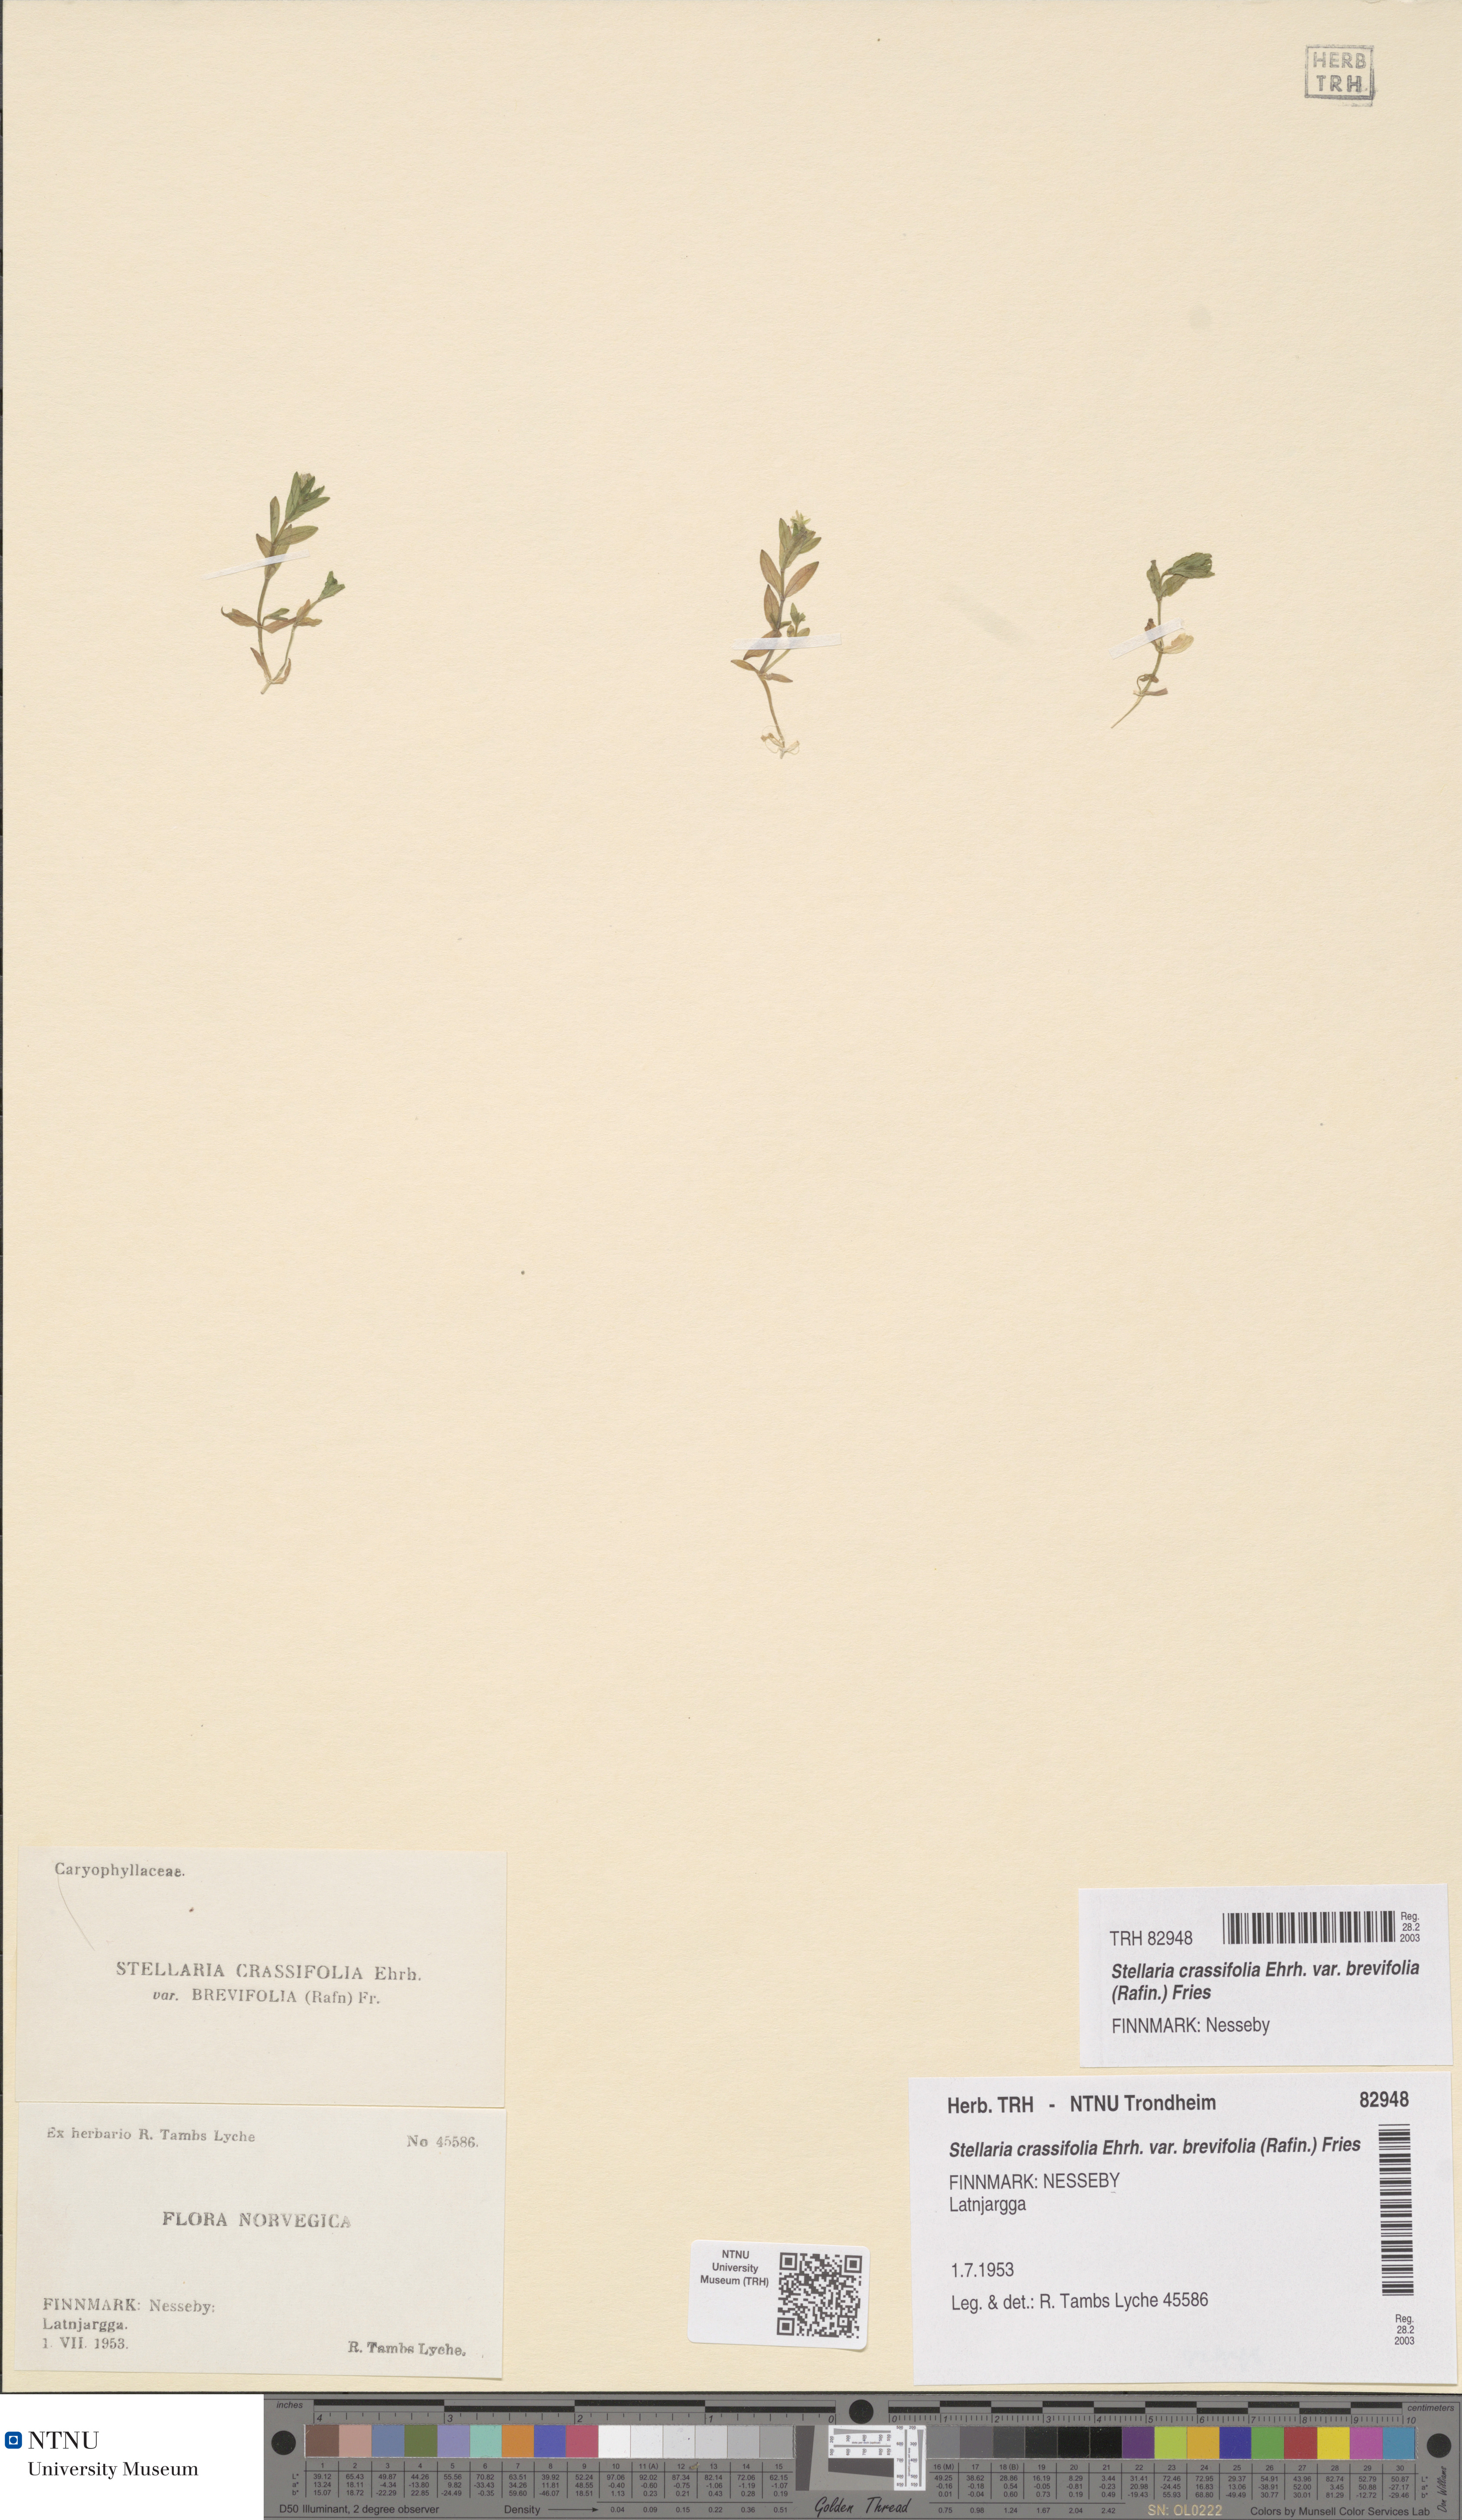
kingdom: Plantae
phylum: Tracheophyta
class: Magnoliopsida
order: Caryophyllales
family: Caryophyllaceae
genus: Stellaria
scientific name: Stellaria crassifolia
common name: Fleshy starwort
